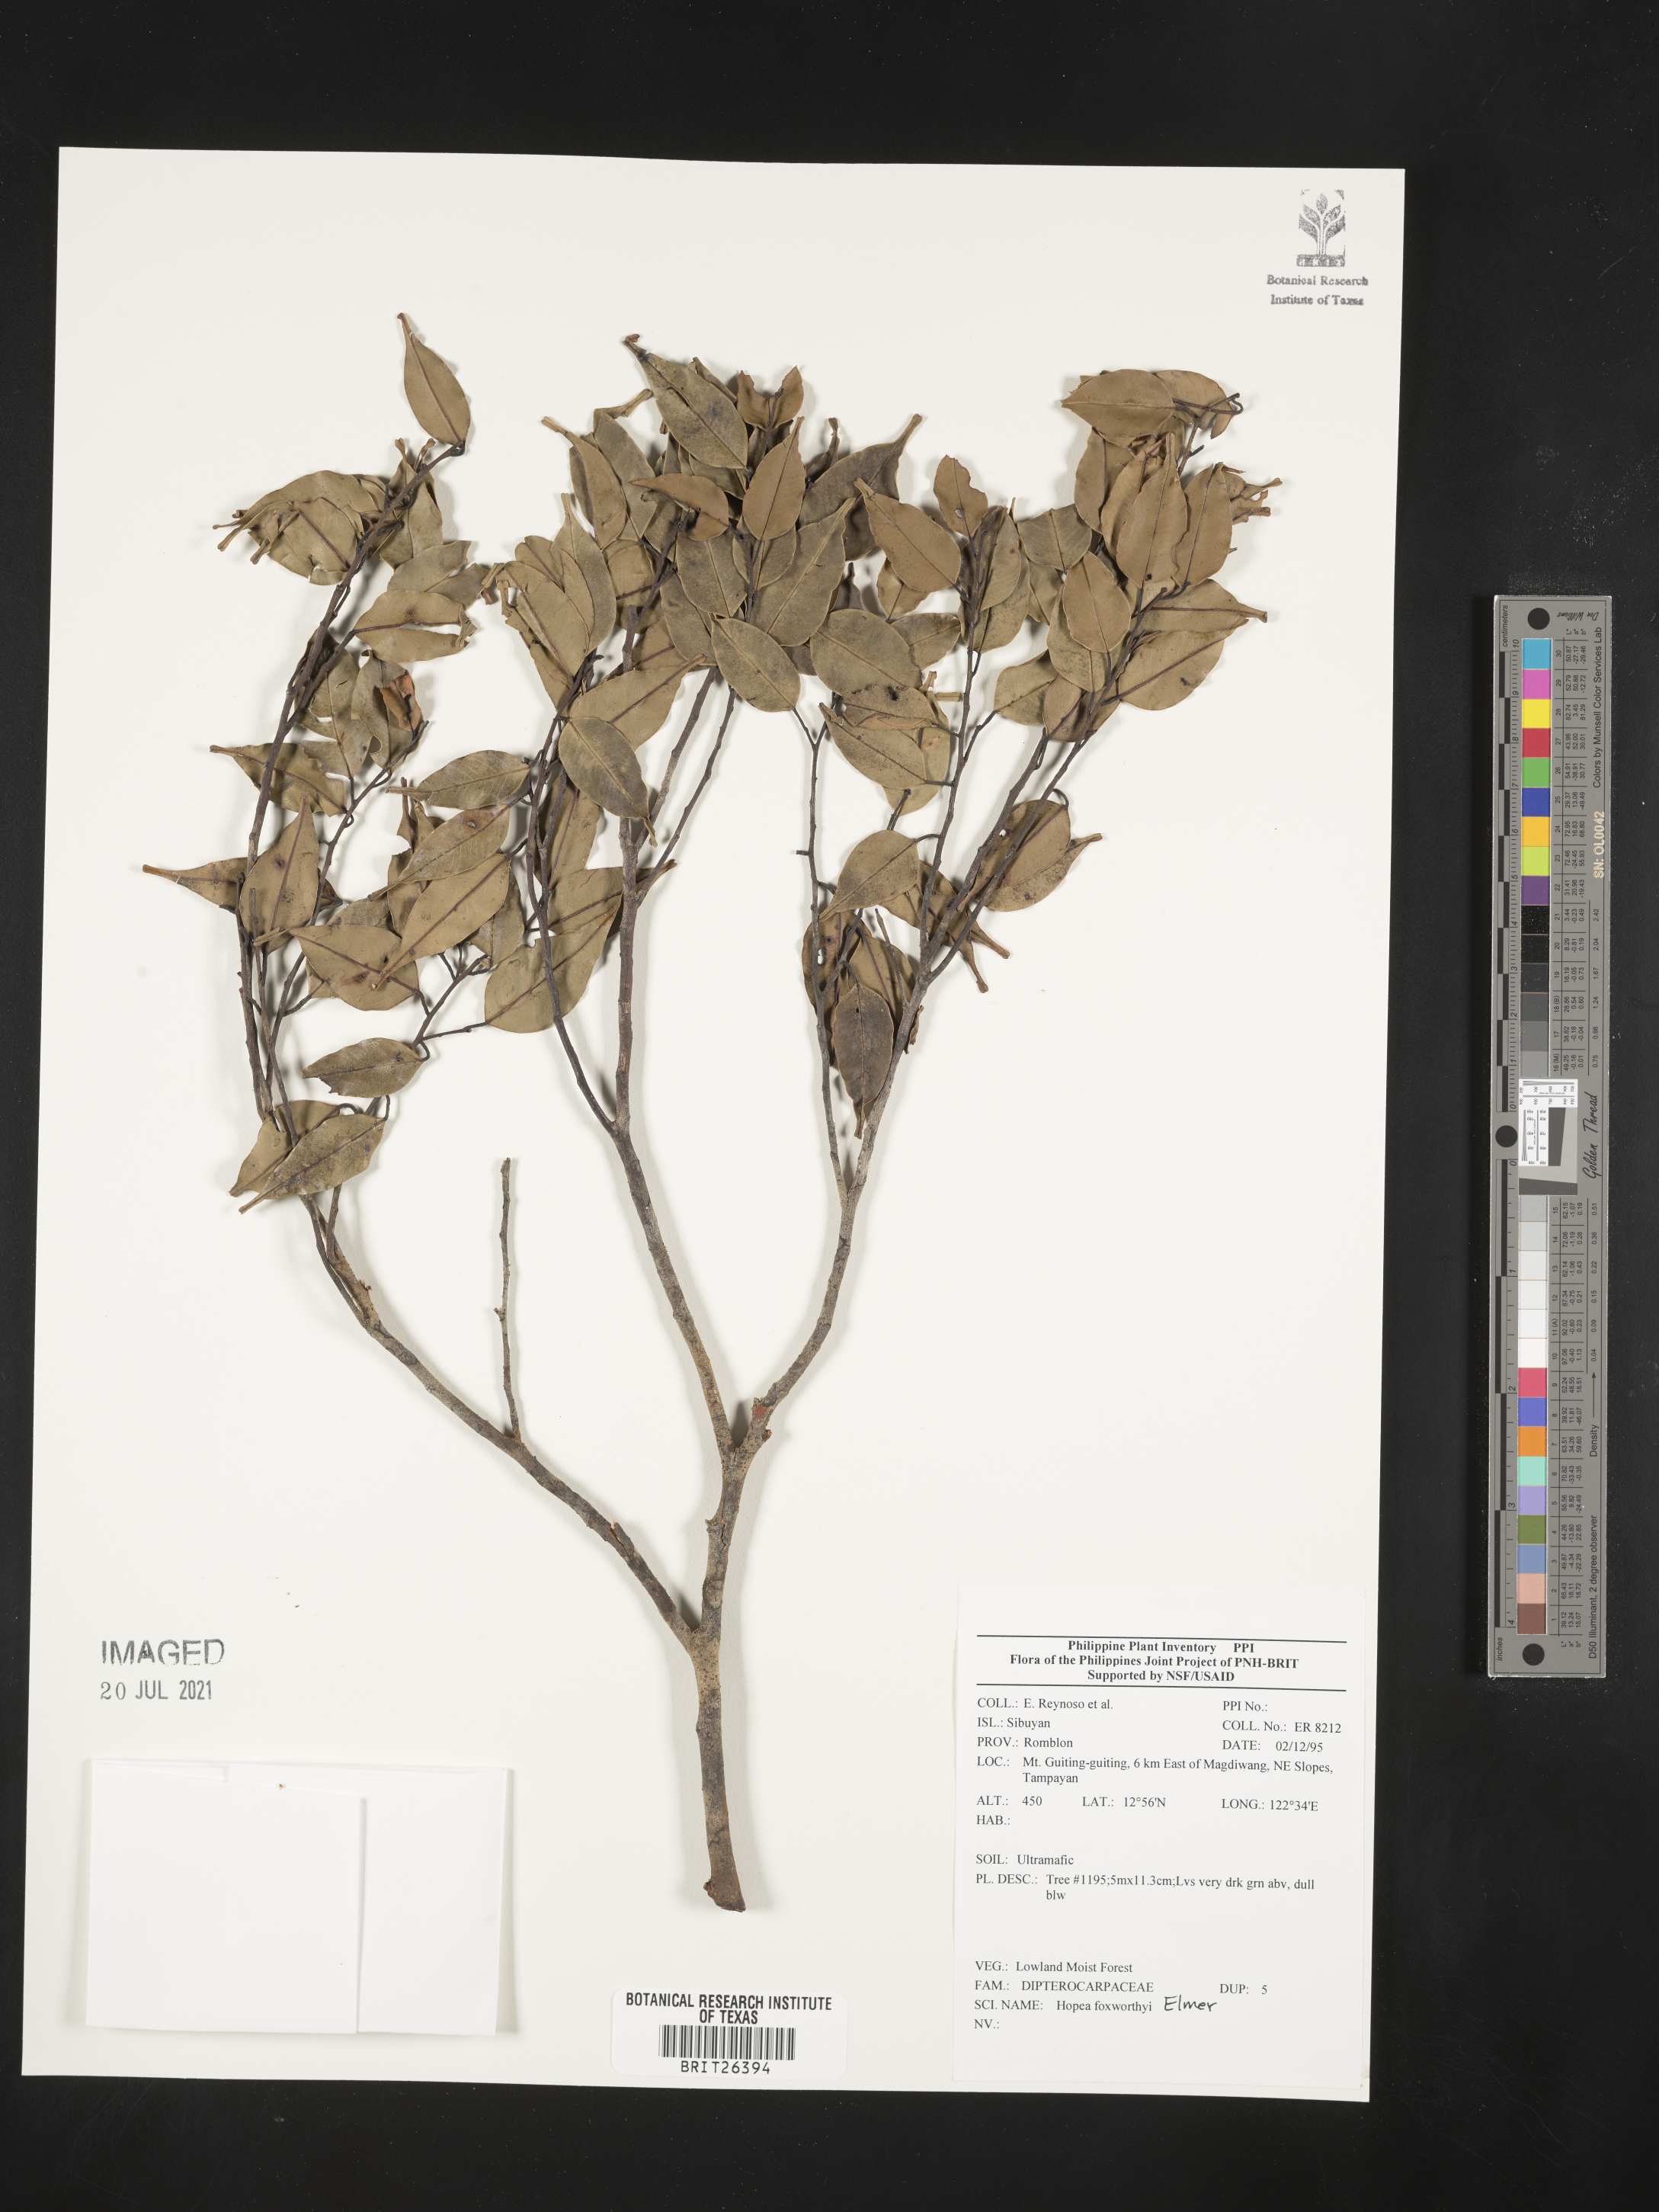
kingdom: Plantae
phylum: Tracheophyta
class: Magnoliopsida
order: Malvales
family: Dipterocarpaceae
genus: Hopea
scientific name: Hopea foxworthyi
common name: Dalingdingan
